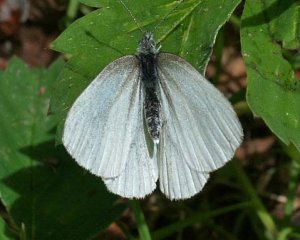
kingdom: Animalia
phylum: Arthropoda
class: Insecta
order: Lepidoptera
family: Pieridae
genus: Pieris
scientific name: Pieris oleracea
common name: Mustard White
